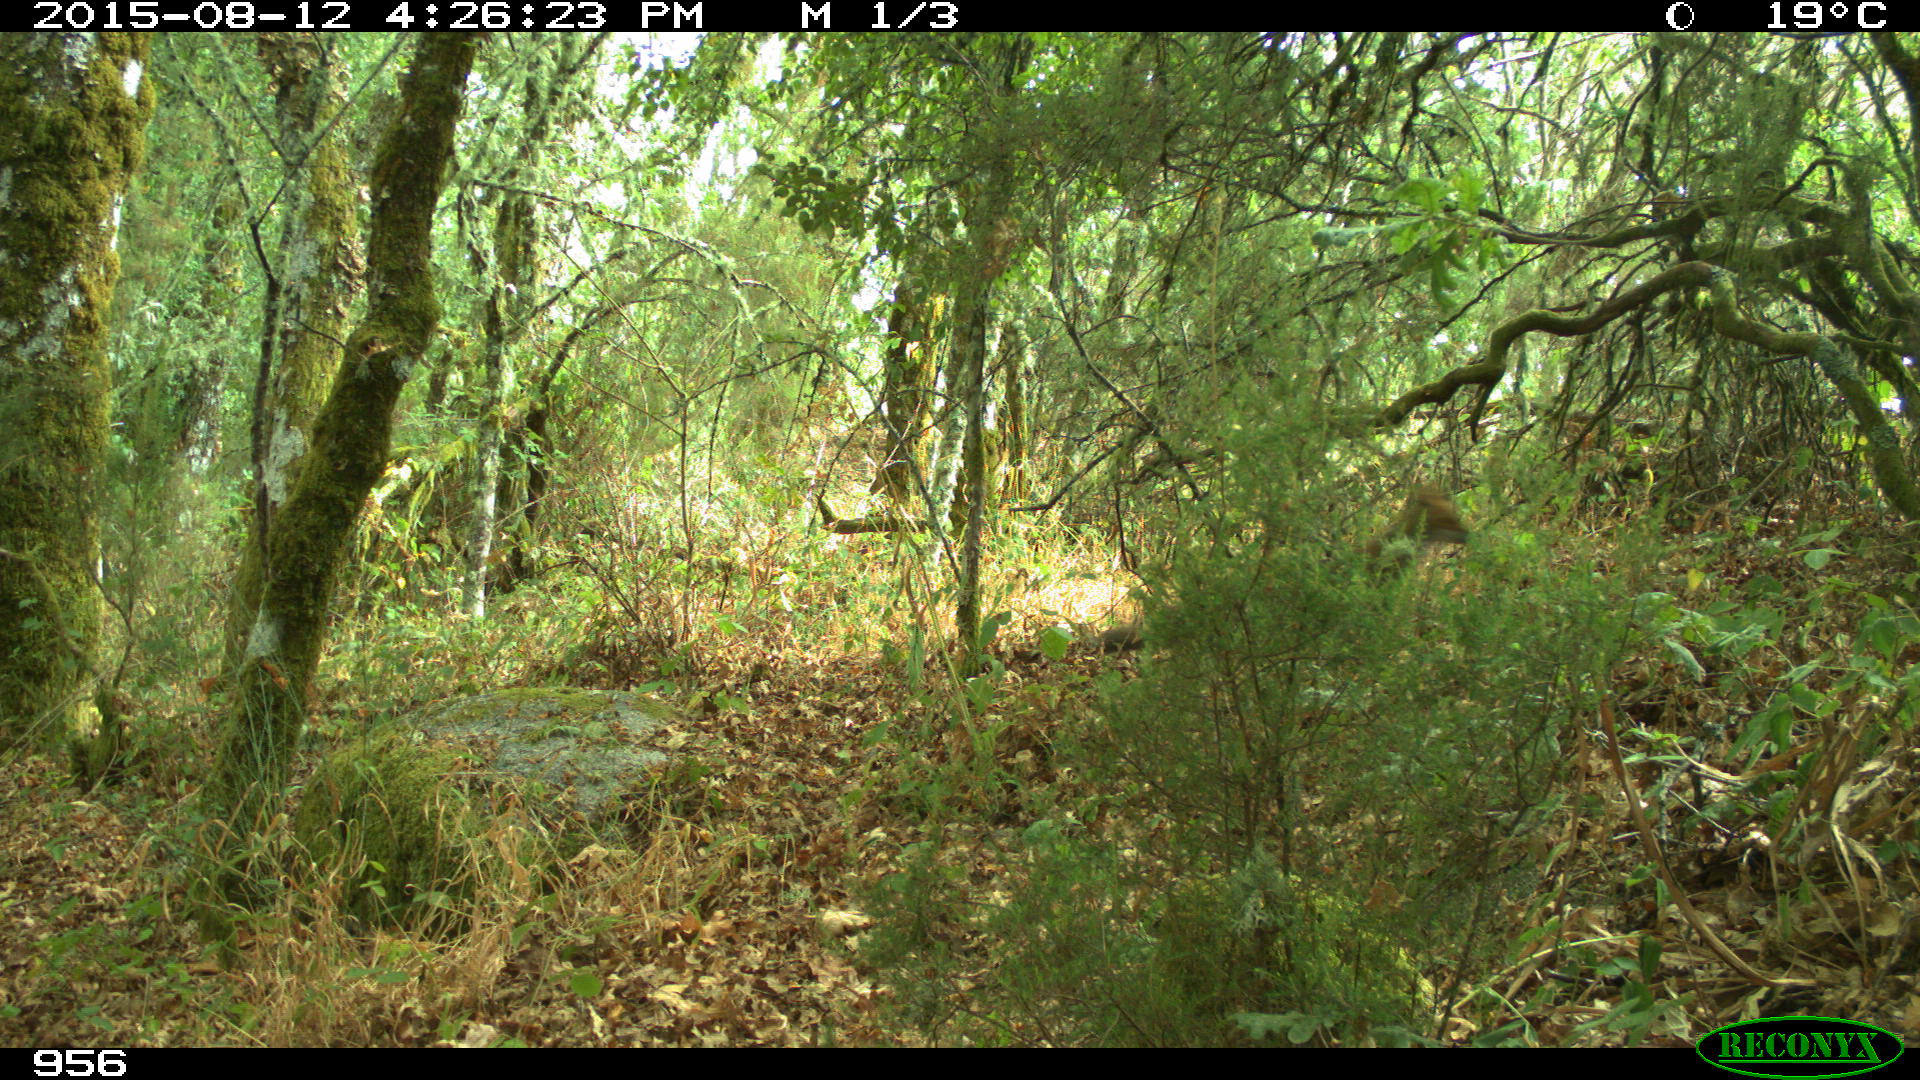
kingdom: Animalia
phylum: Chordata
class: Mammalia
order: Carnivora
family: Canidae
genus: Vulpes
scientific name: Vulpes vulpes
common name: Red fox
